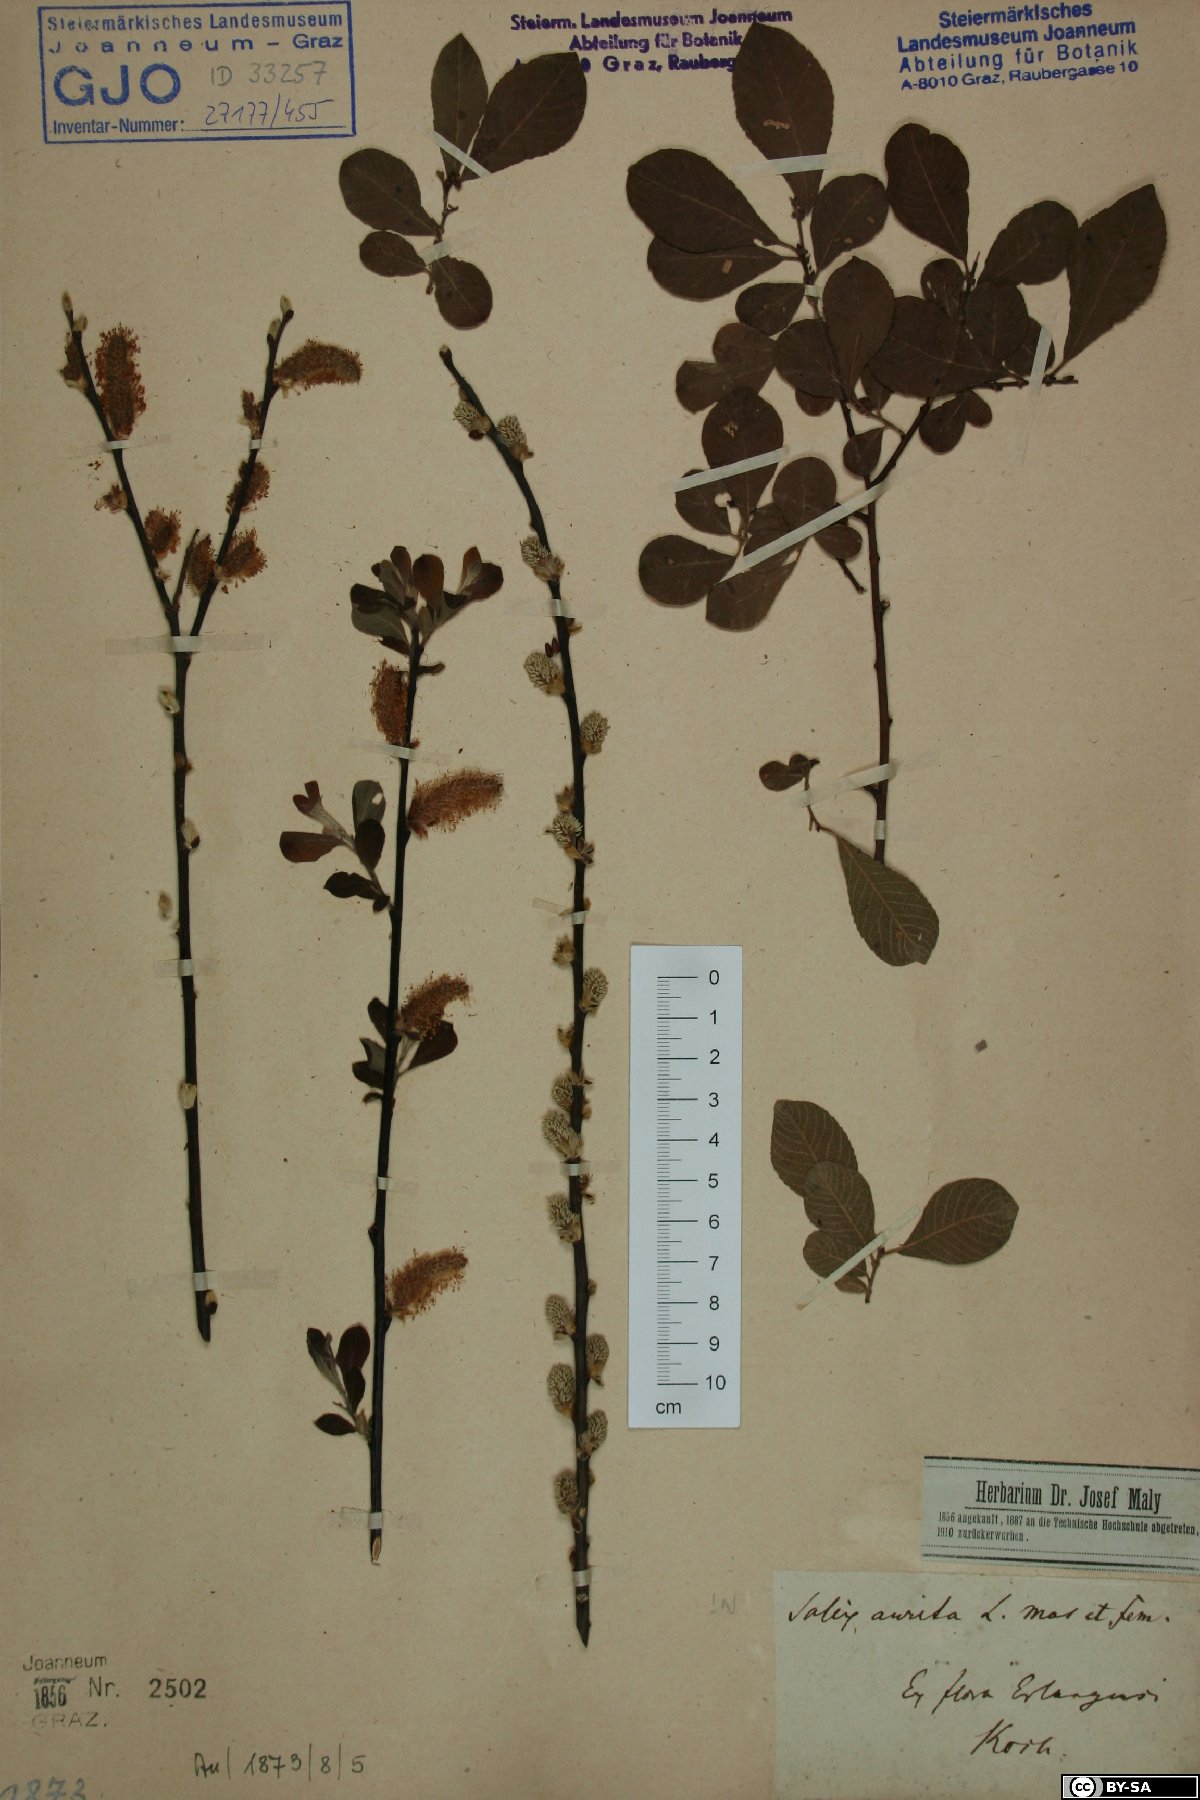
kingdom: Plantae
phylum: Tracheophyta
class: Magnoliopsida
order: Malpighiales
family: Salicaceae
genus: Salix
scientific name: Salix aurita
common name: Eared willow
